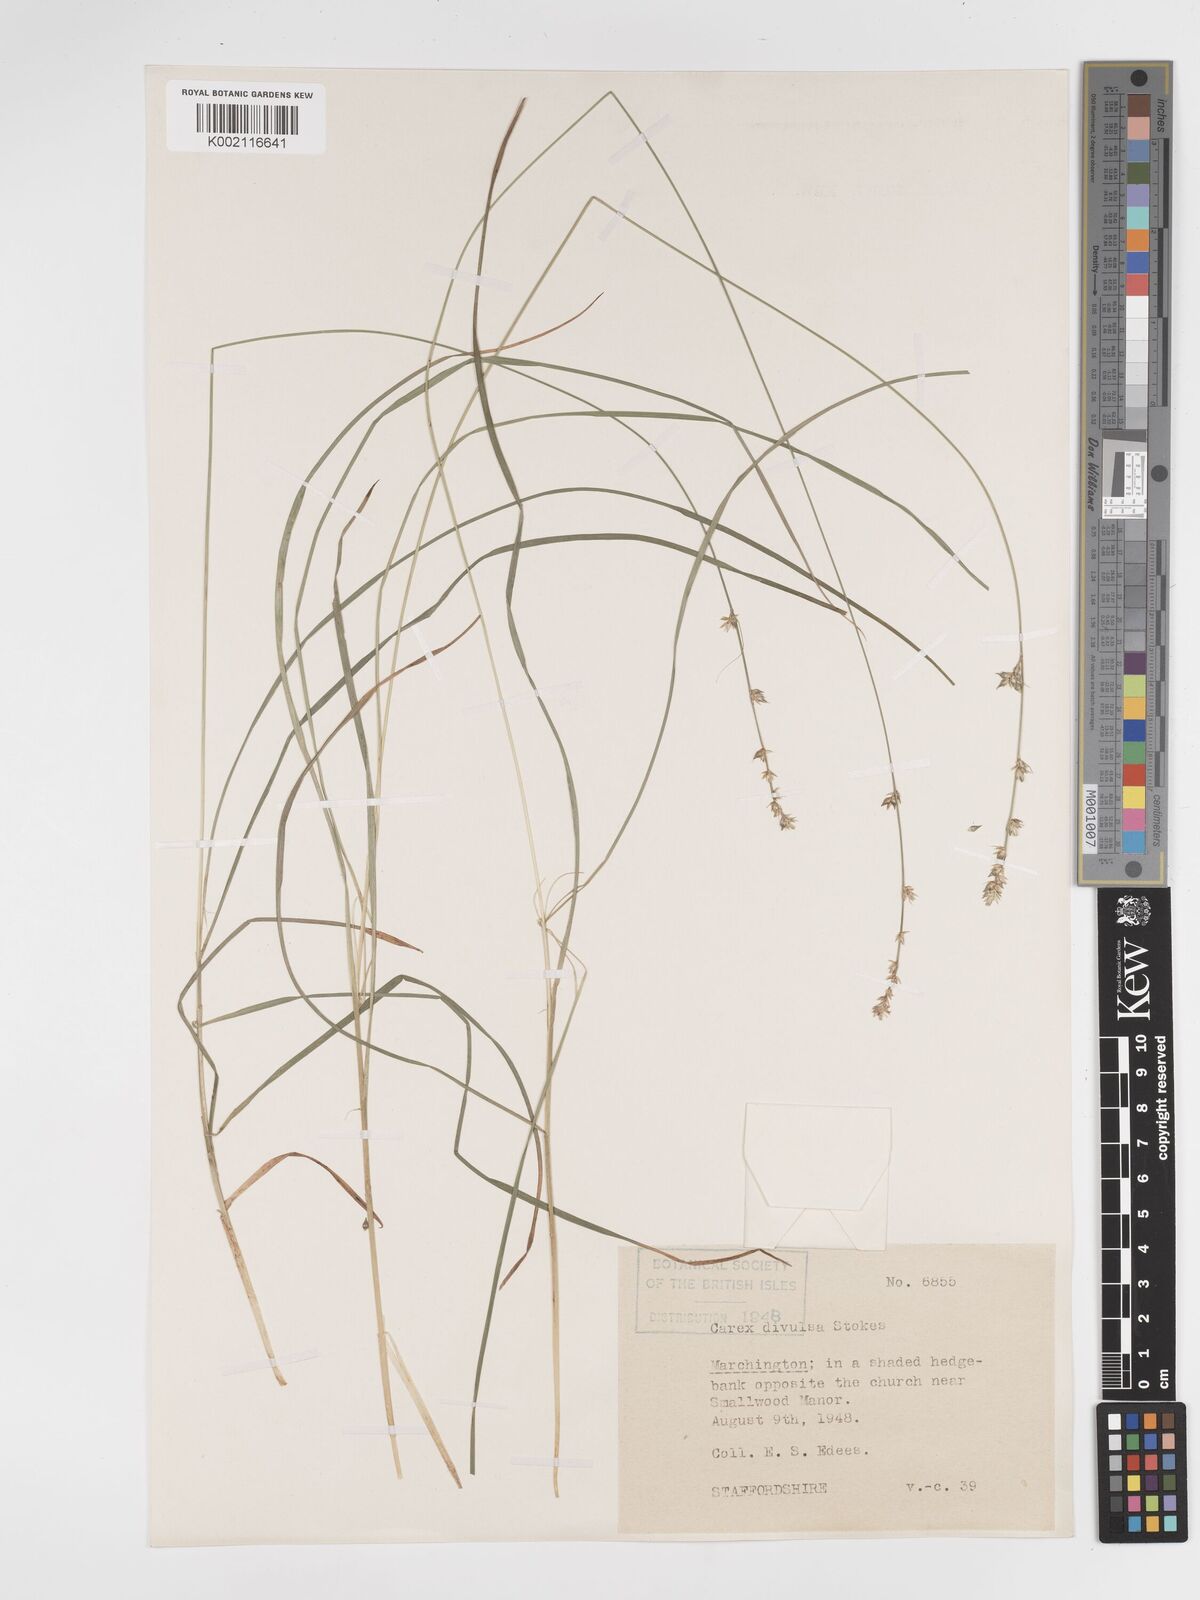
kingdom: Plantae
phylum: Tracheophyta
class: Liliopsida
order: Poales
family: Cyperaceae
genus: Carex
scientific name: Carex divulsa
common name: Grassland sedge
